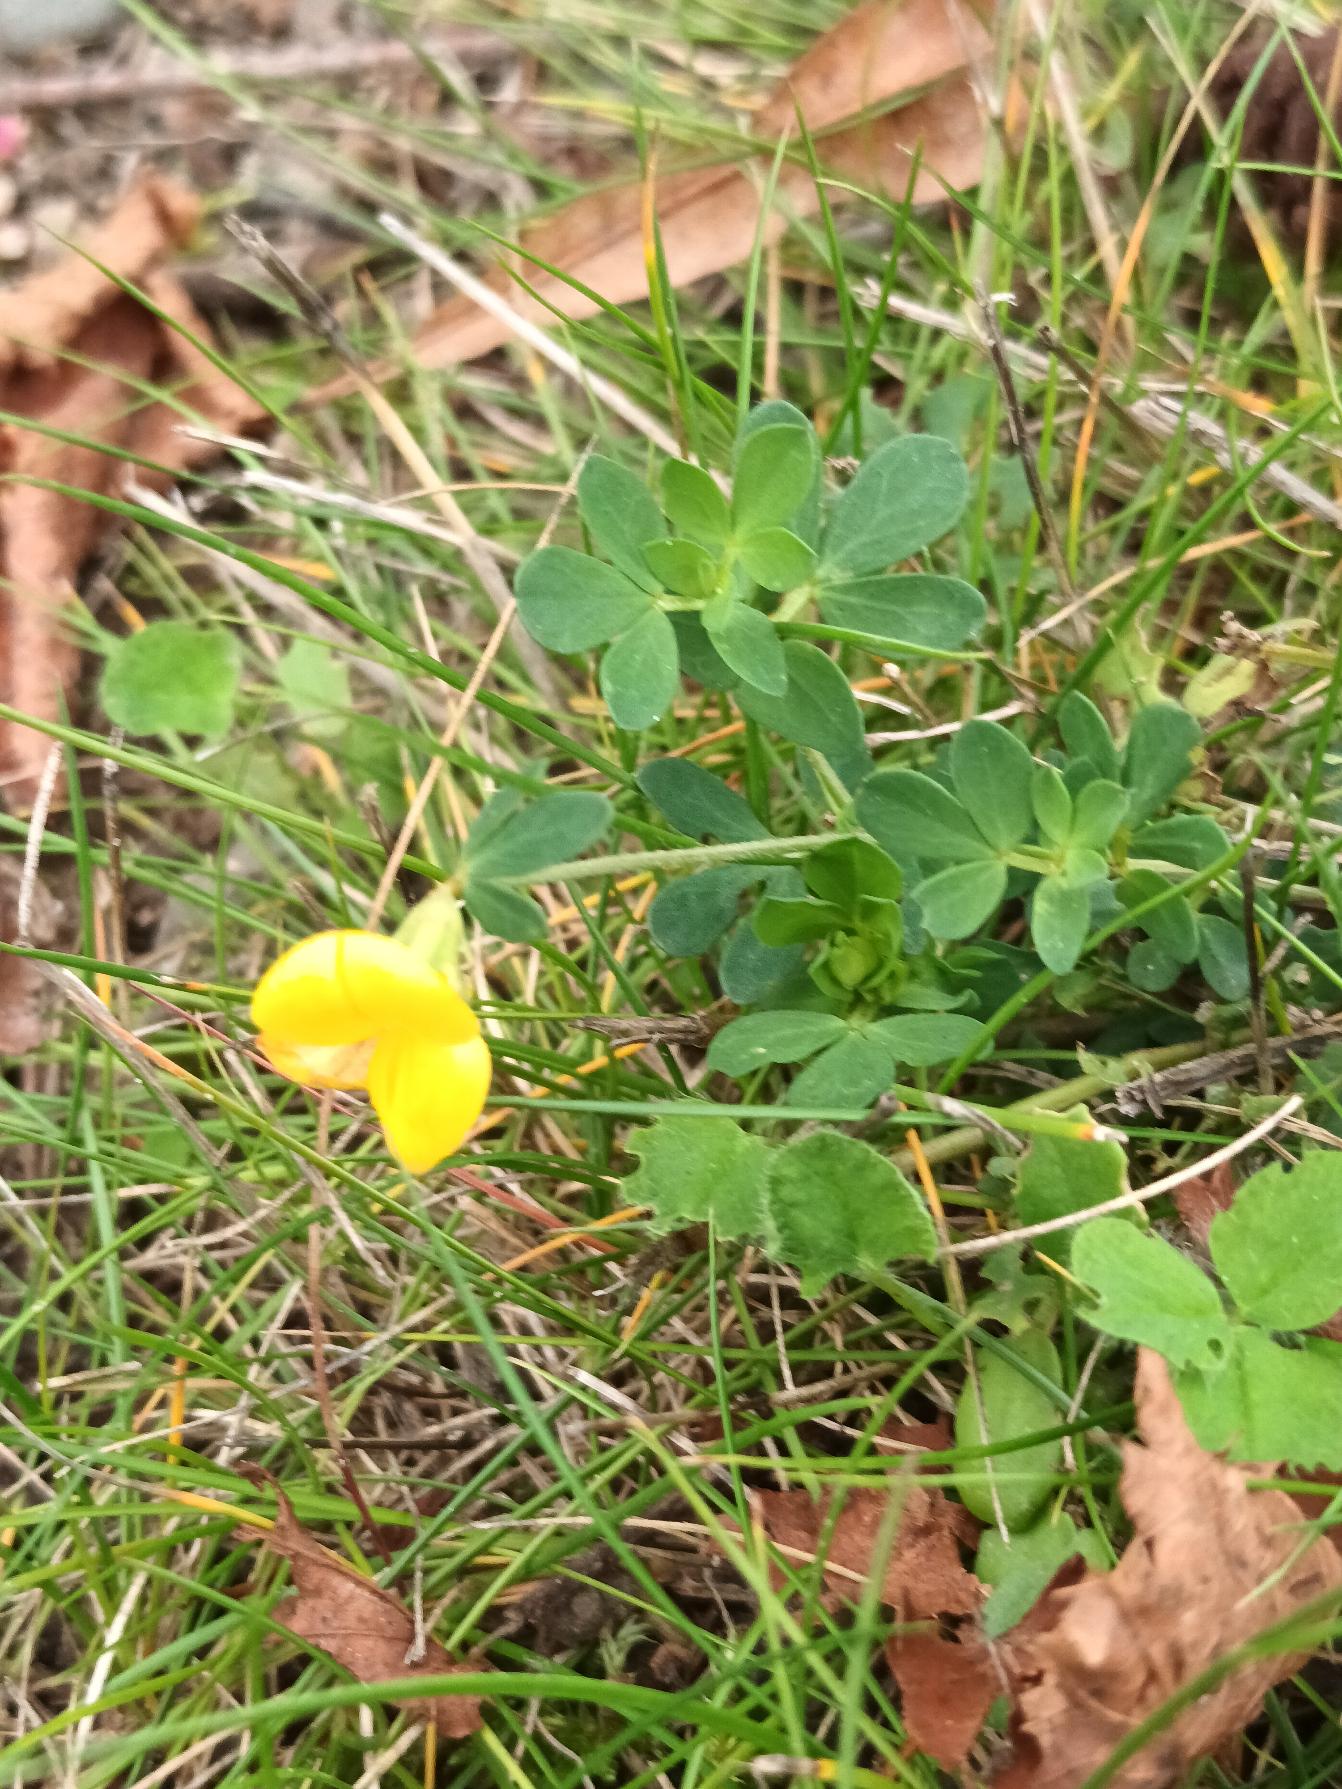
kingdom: Plantae
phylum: Tracheophyta
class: Magnoliopsida
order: Fabales
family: Fabaceae
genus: Lotus
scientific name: Lotus corniculatus
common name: Almindelig kællingetand
